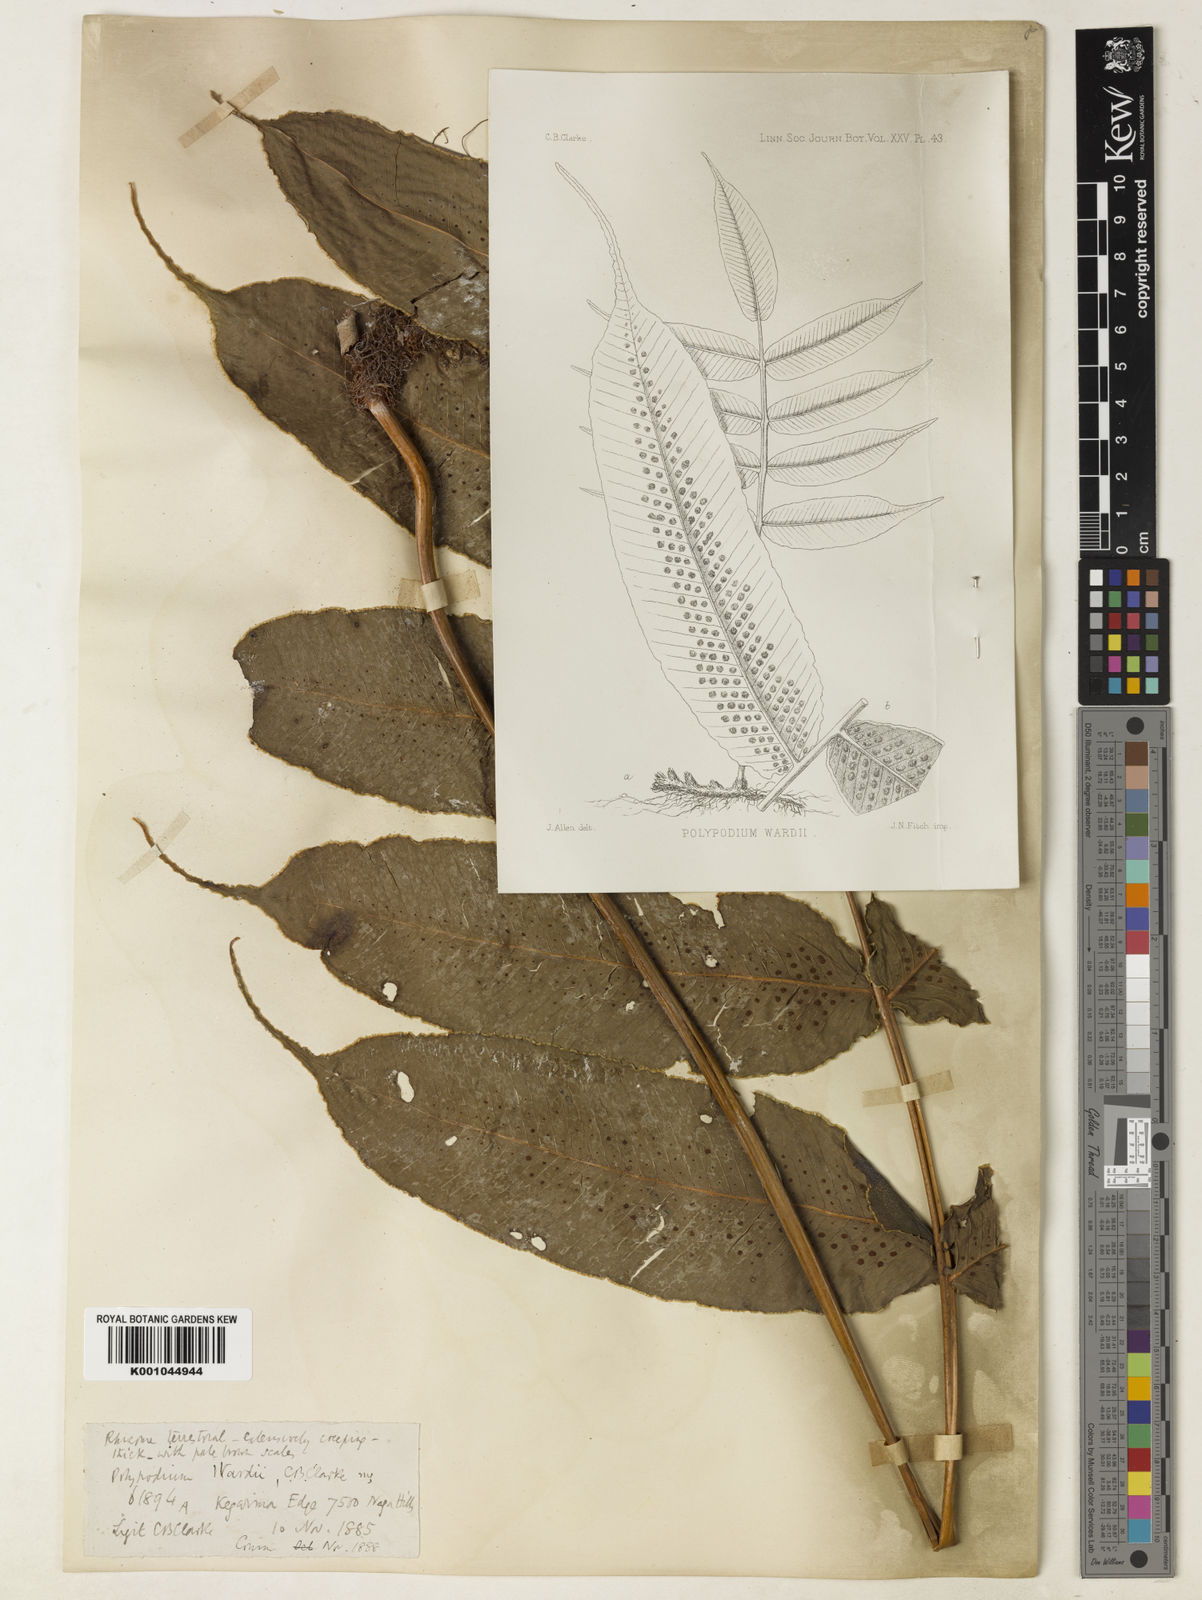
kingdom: Plantae
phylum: Tracheophyta
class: Polypodiopsida
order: Polypodiales
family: Polypodiaceae
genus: Selliguea
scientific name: Selliguea wardii
